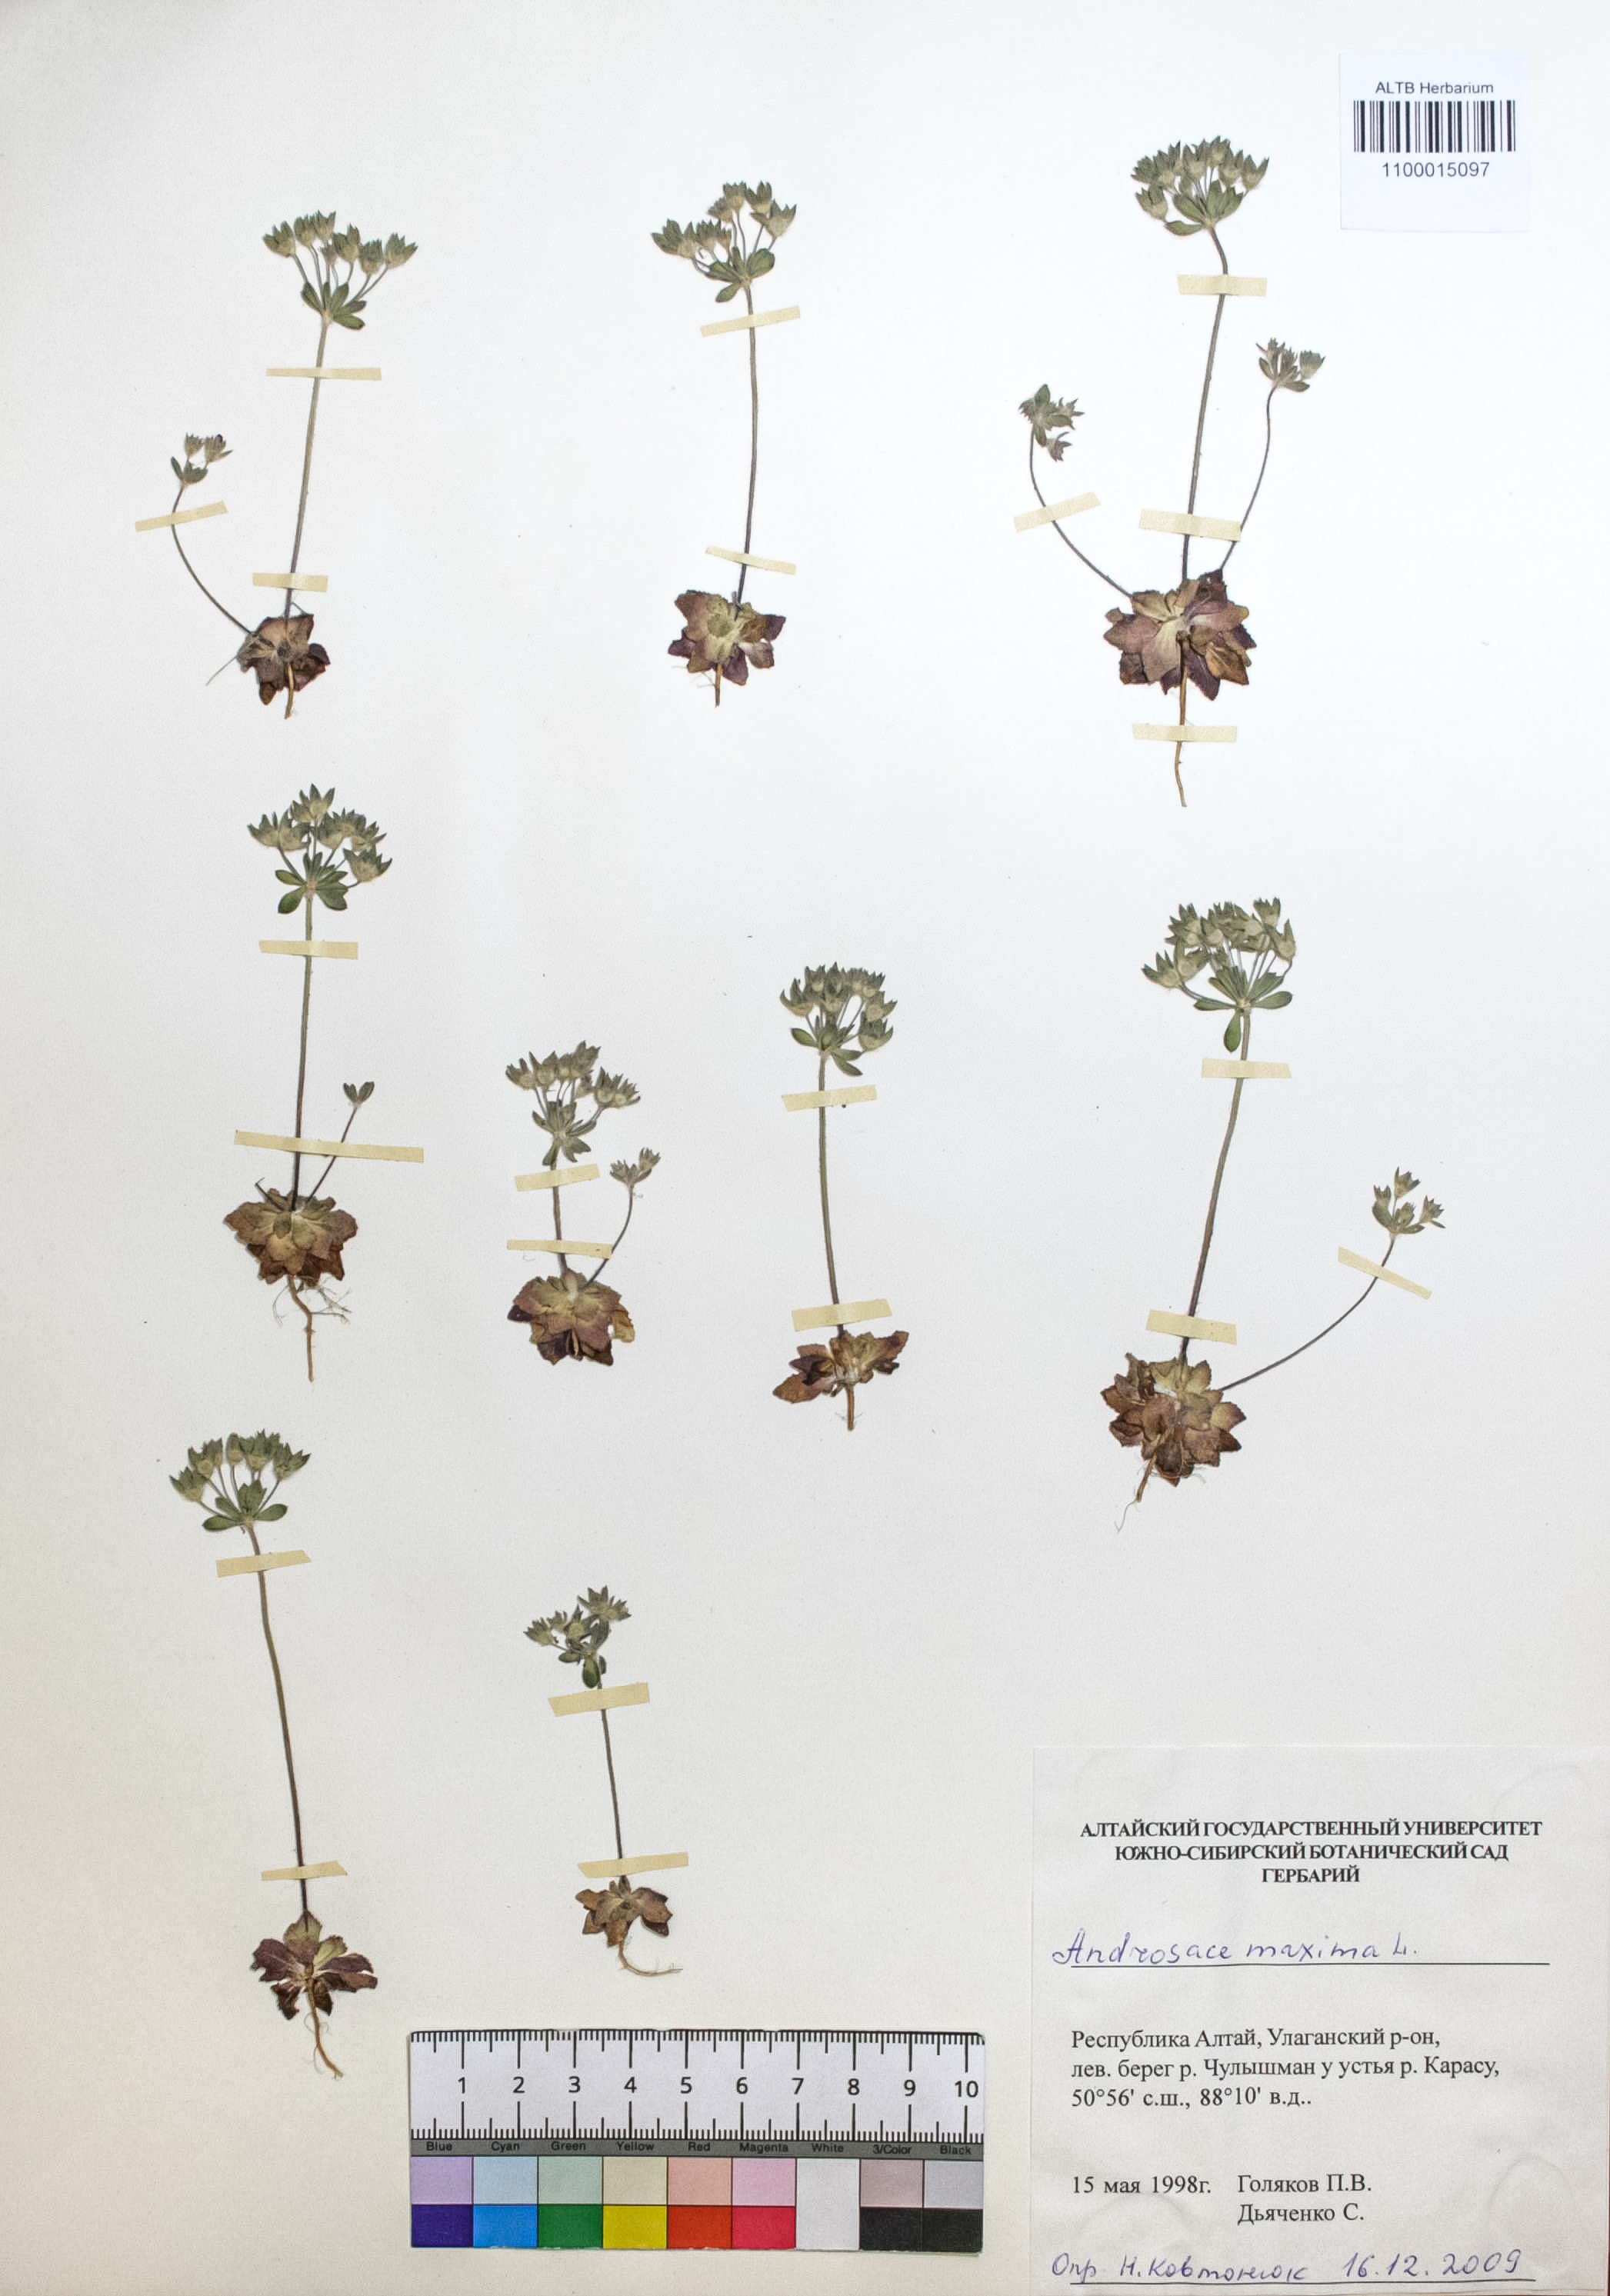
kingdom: Plantae
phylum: Tracheophyta
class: Magnoliopsida
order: Ericales
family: Primulaceae
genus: Androsace
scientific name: Androsace maxima
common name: Annual androsace
